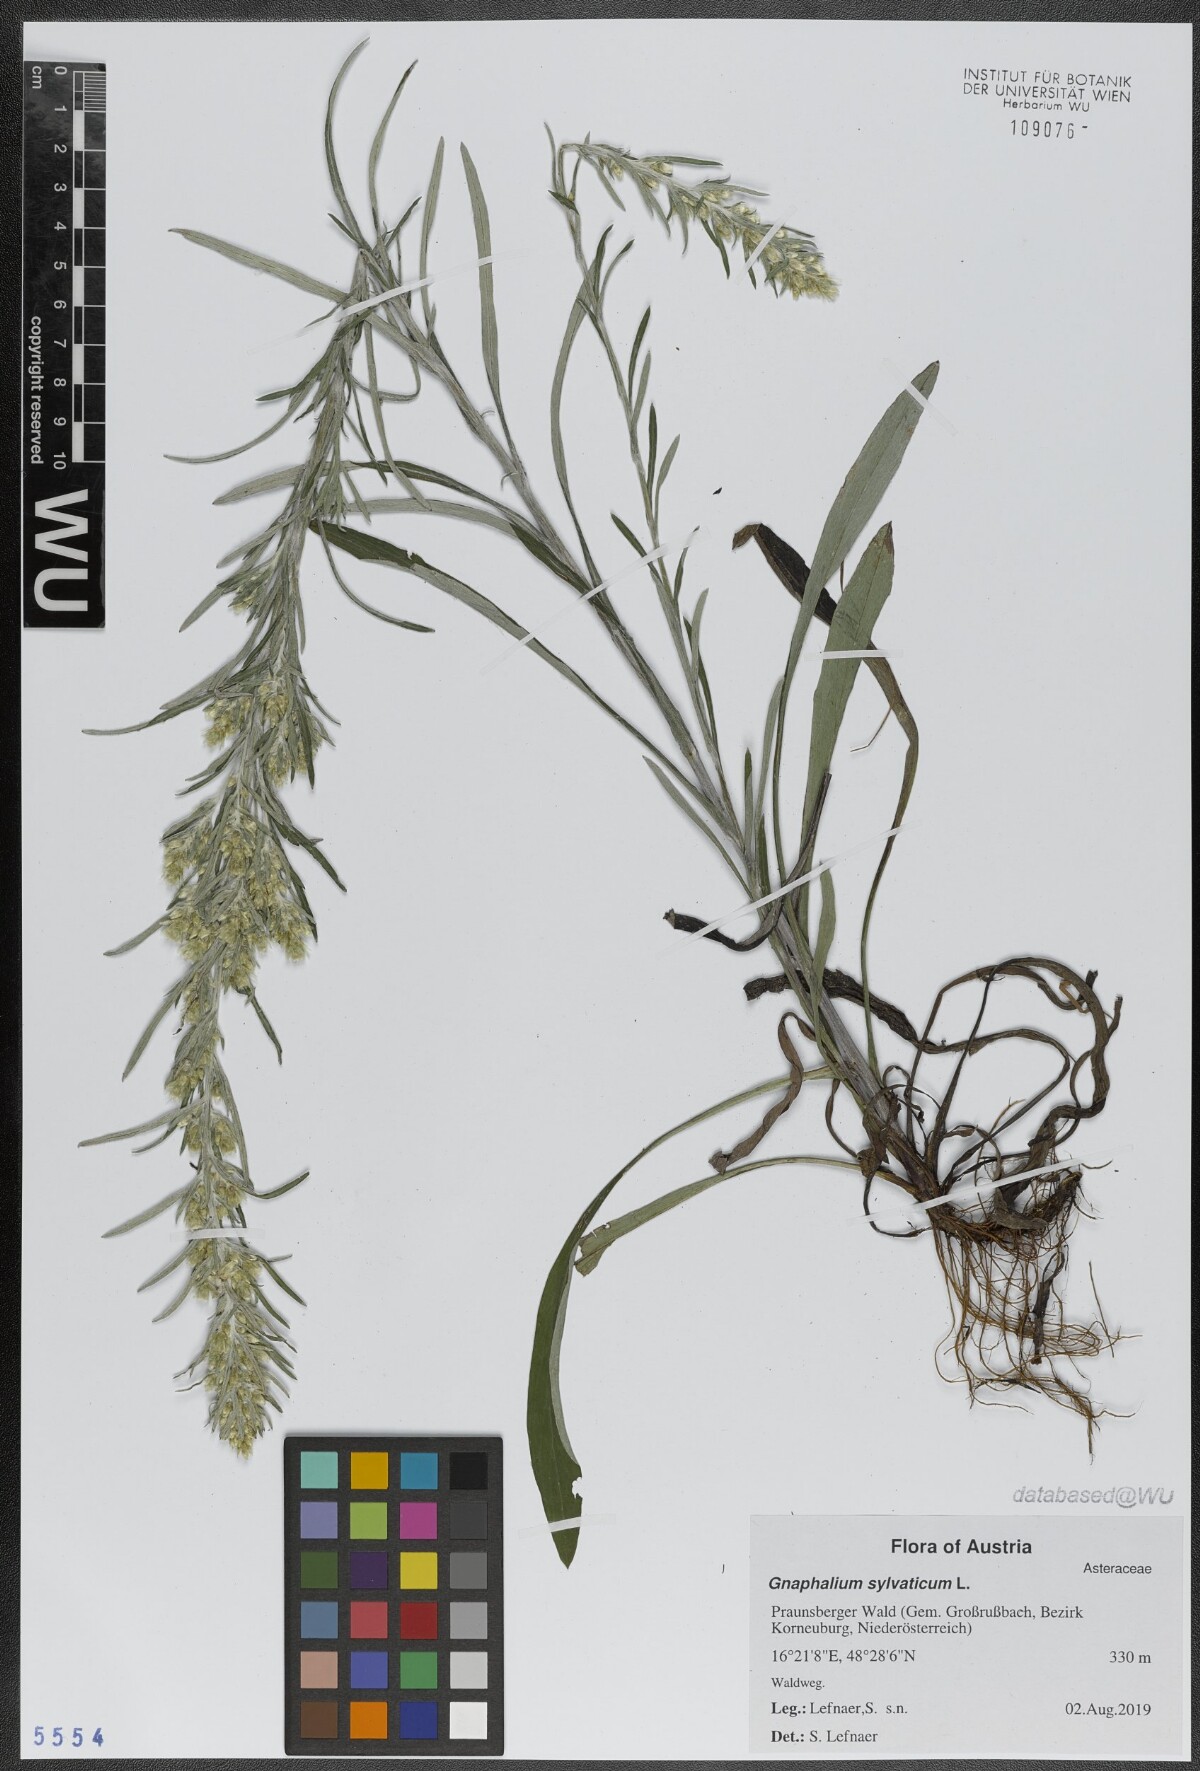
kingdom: Plantae
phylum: Tracheophyta
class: Magnoliopsida
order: Asterales
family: Asteraceae
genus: Omalotheca
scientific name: Omalotheca sylvatica
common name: Heath cudweed
